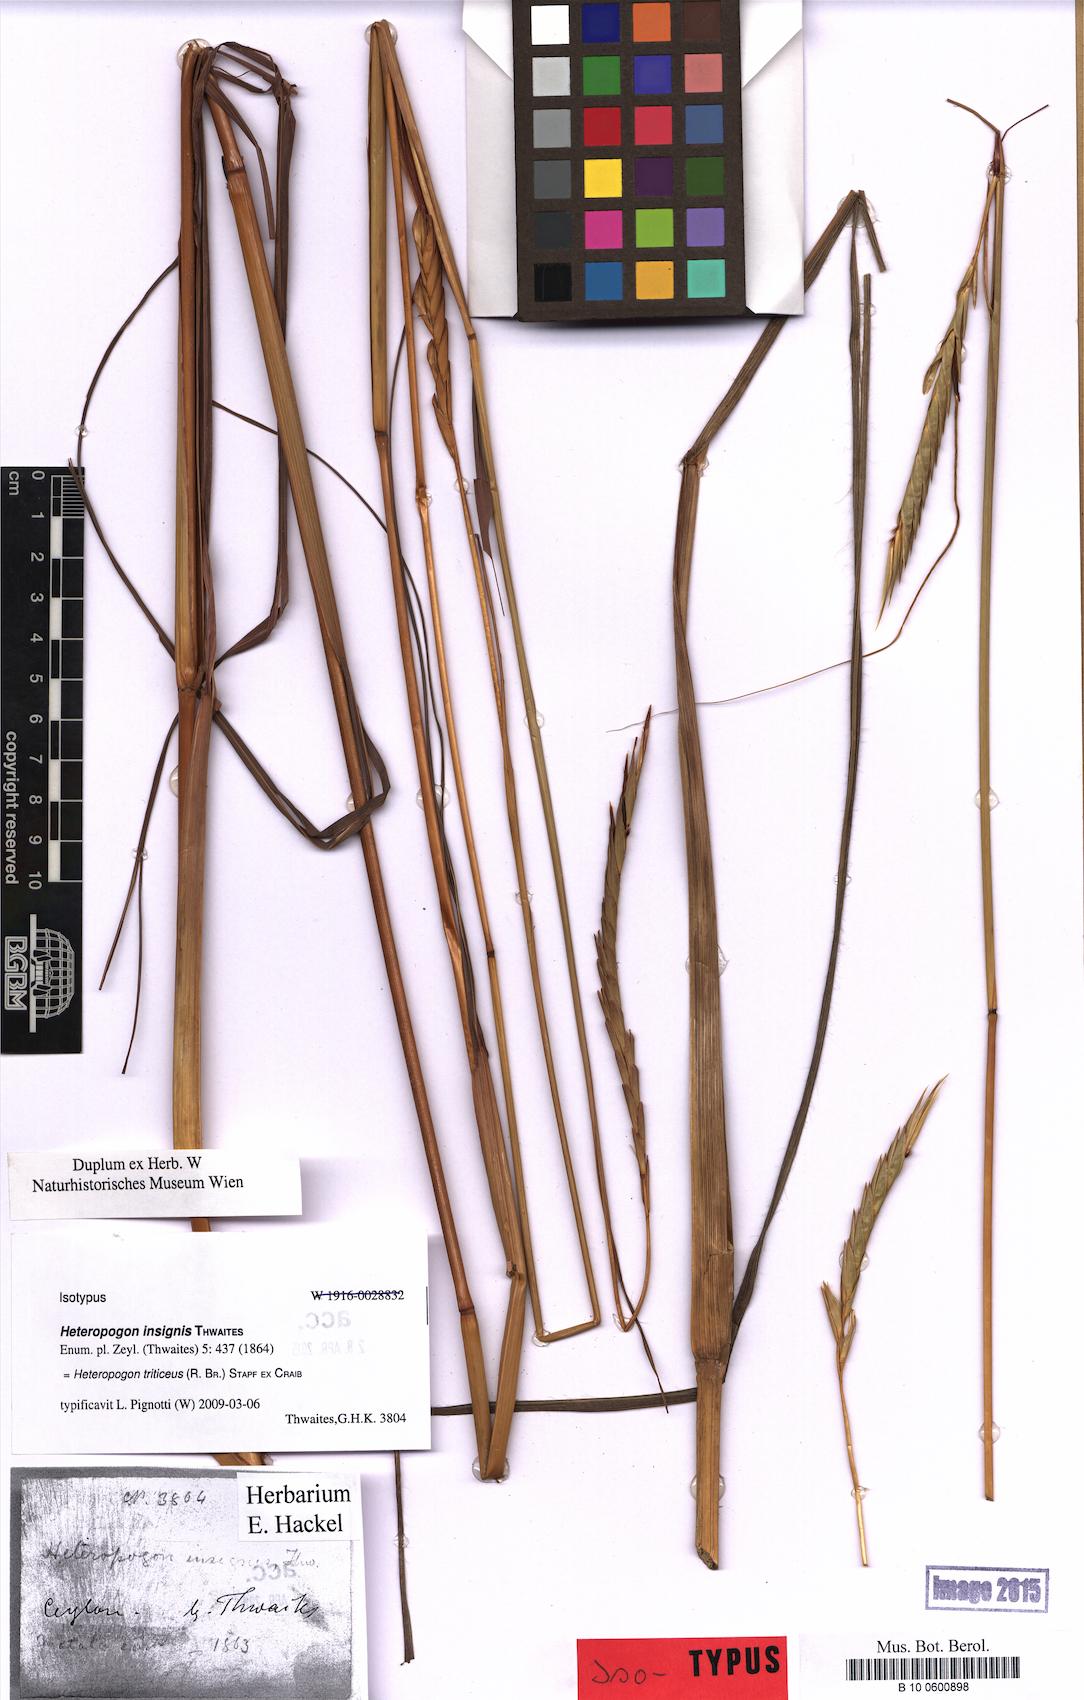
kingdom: Plantae
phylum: Tracheophyta
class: Liliopsida
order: Poales
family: Poaceae
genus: Heteropogon
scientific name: Heteropogon triticeus
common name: Sugar grass
